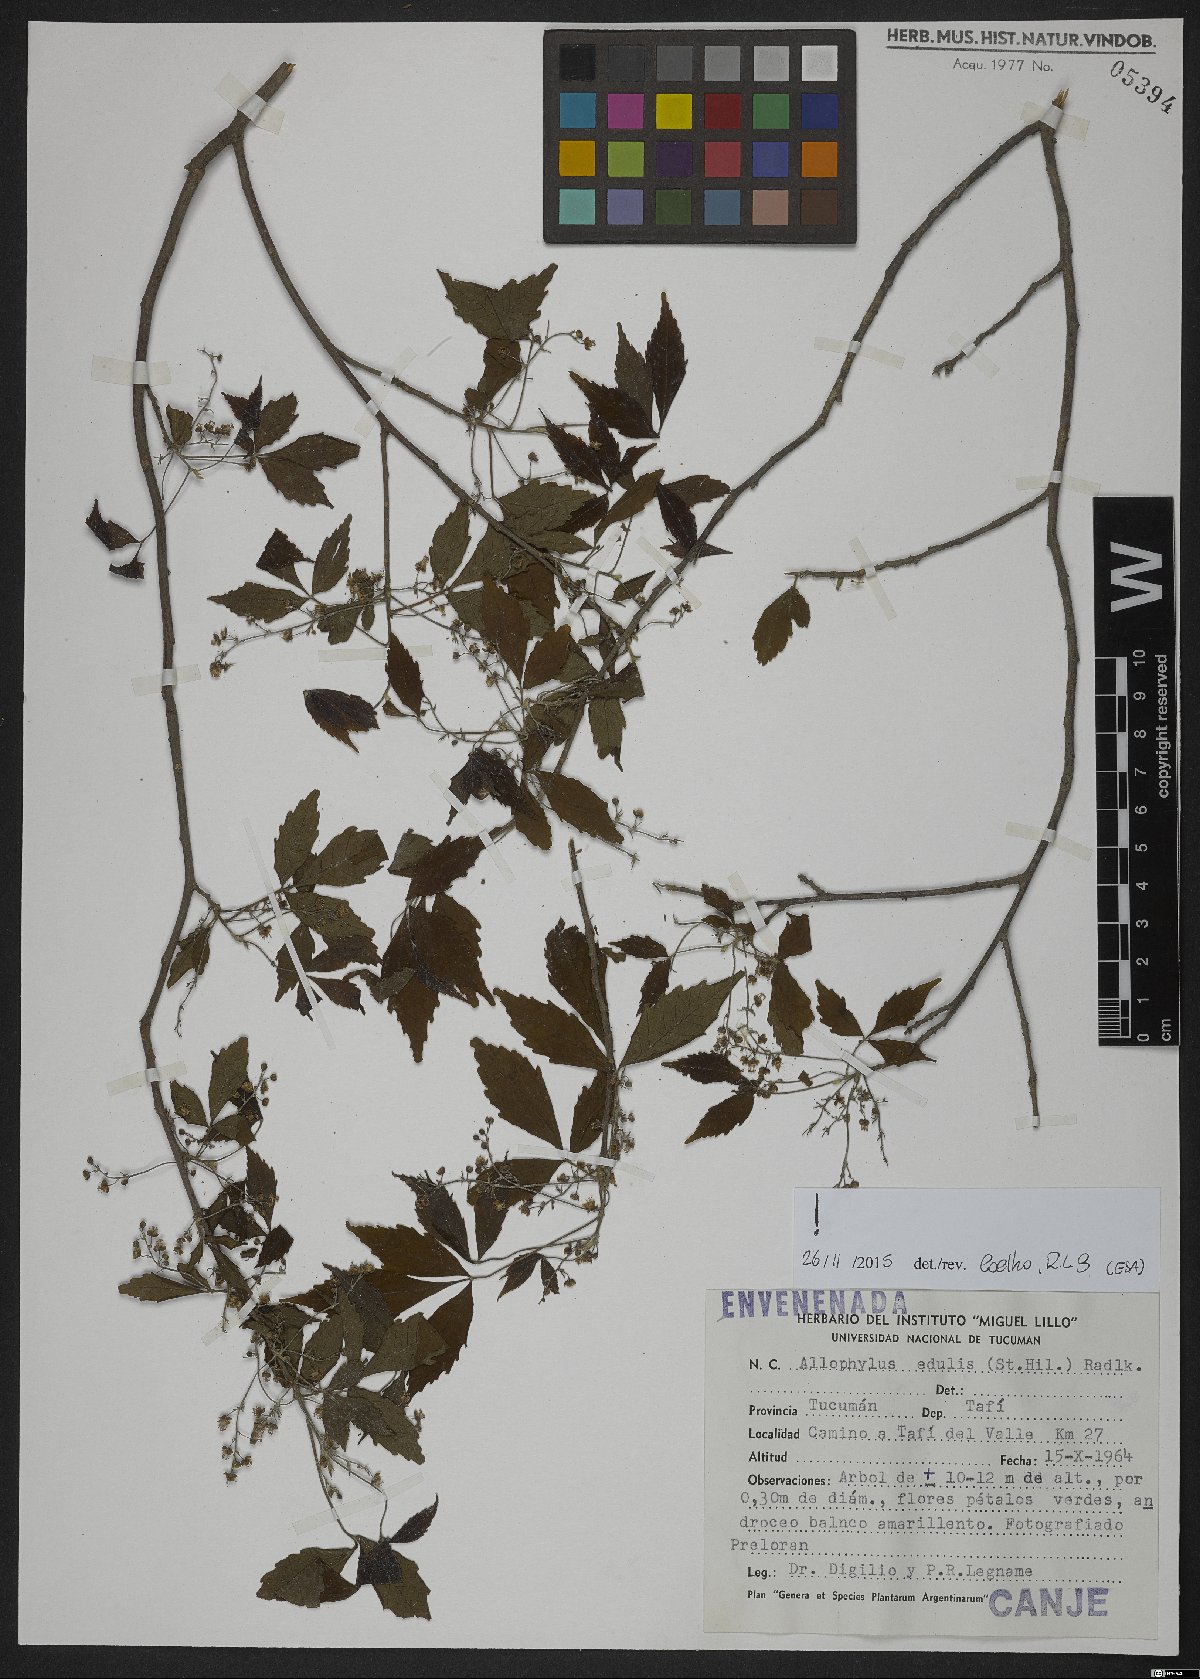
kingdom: Plantae
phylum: Tracheophyta
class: Magnoliopsida
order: Sapindales
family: Sapindaceae
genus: Allophylus
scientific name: Allophylus edulis
